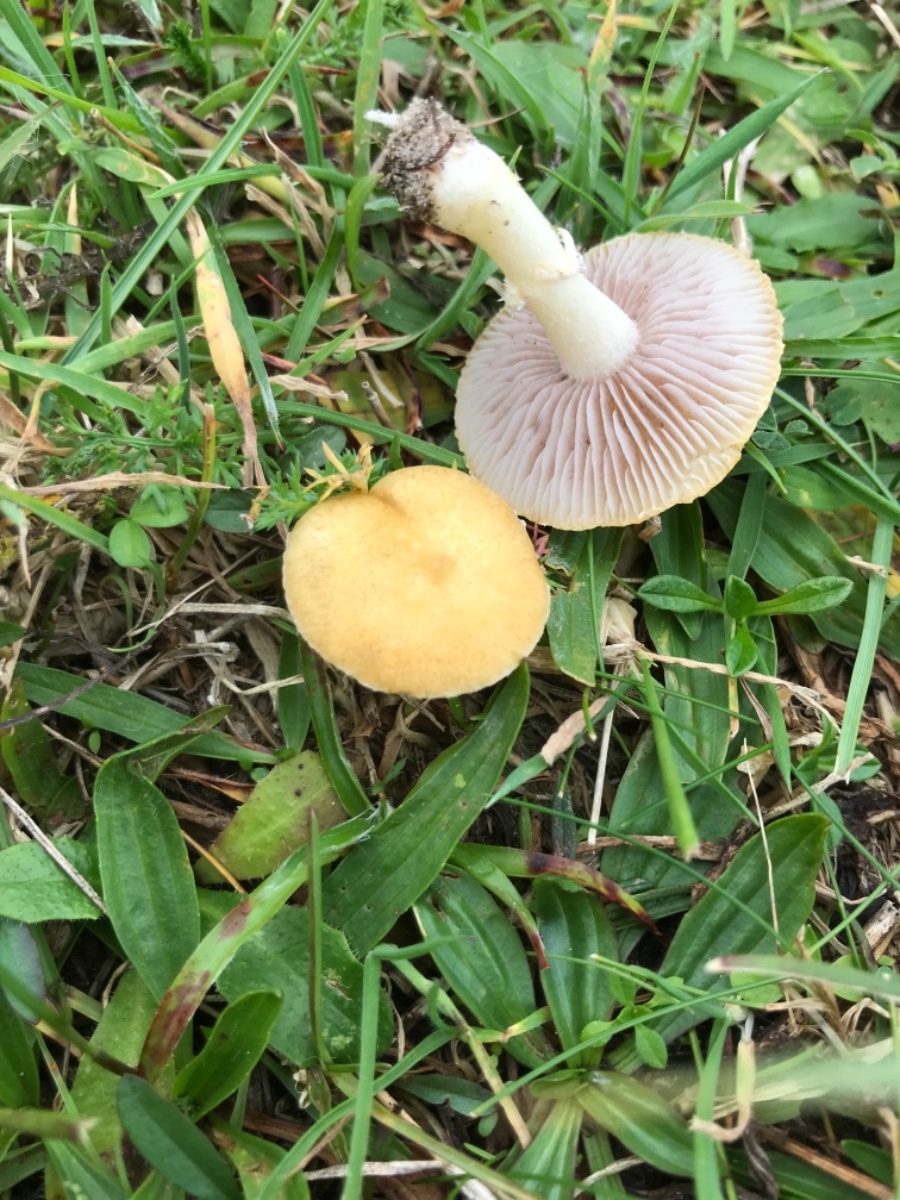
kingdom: Fungi
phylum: Basidiomycota
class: Agaricomycetes
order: Agaricales
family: Hymenogastraceae
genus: Psilocybe
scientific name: Psilocybe coronilla
